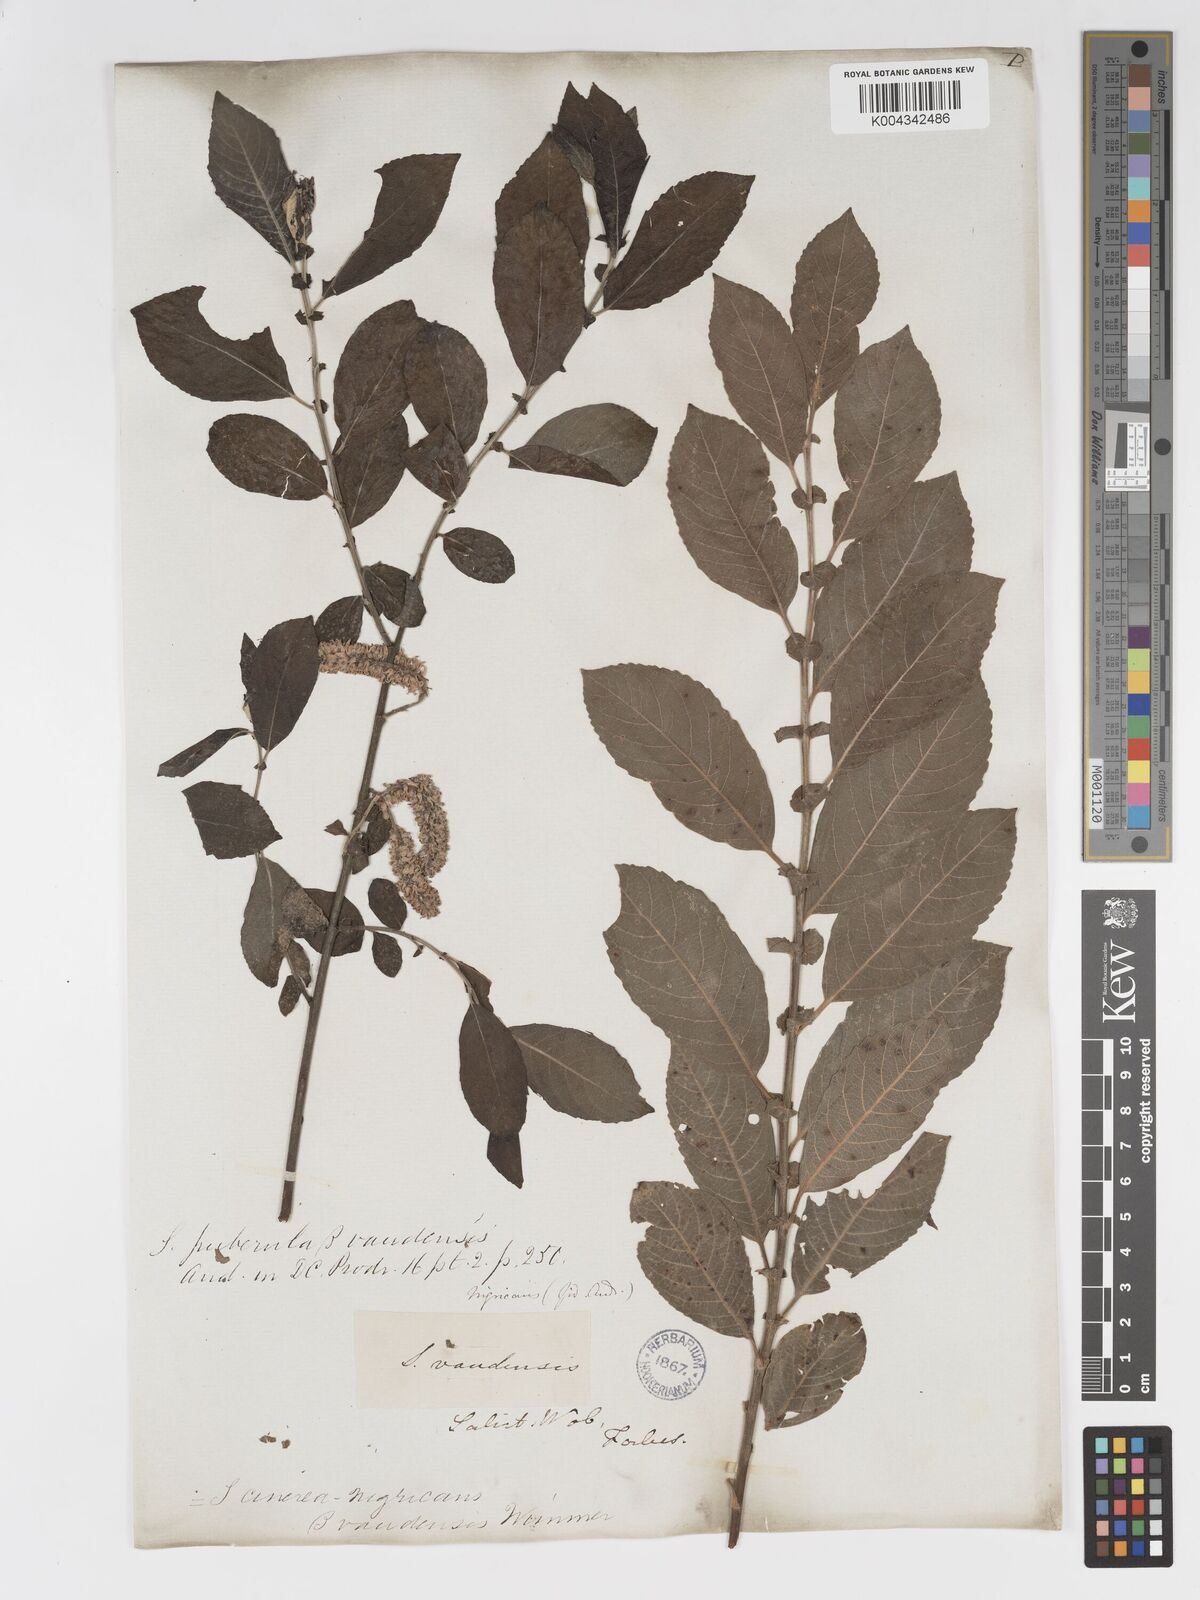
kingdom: Plantae
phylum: Tracheophyta
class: Magnoliopsida
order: Malpighiales
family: Salicaceae
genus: Salix
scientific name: Salix
